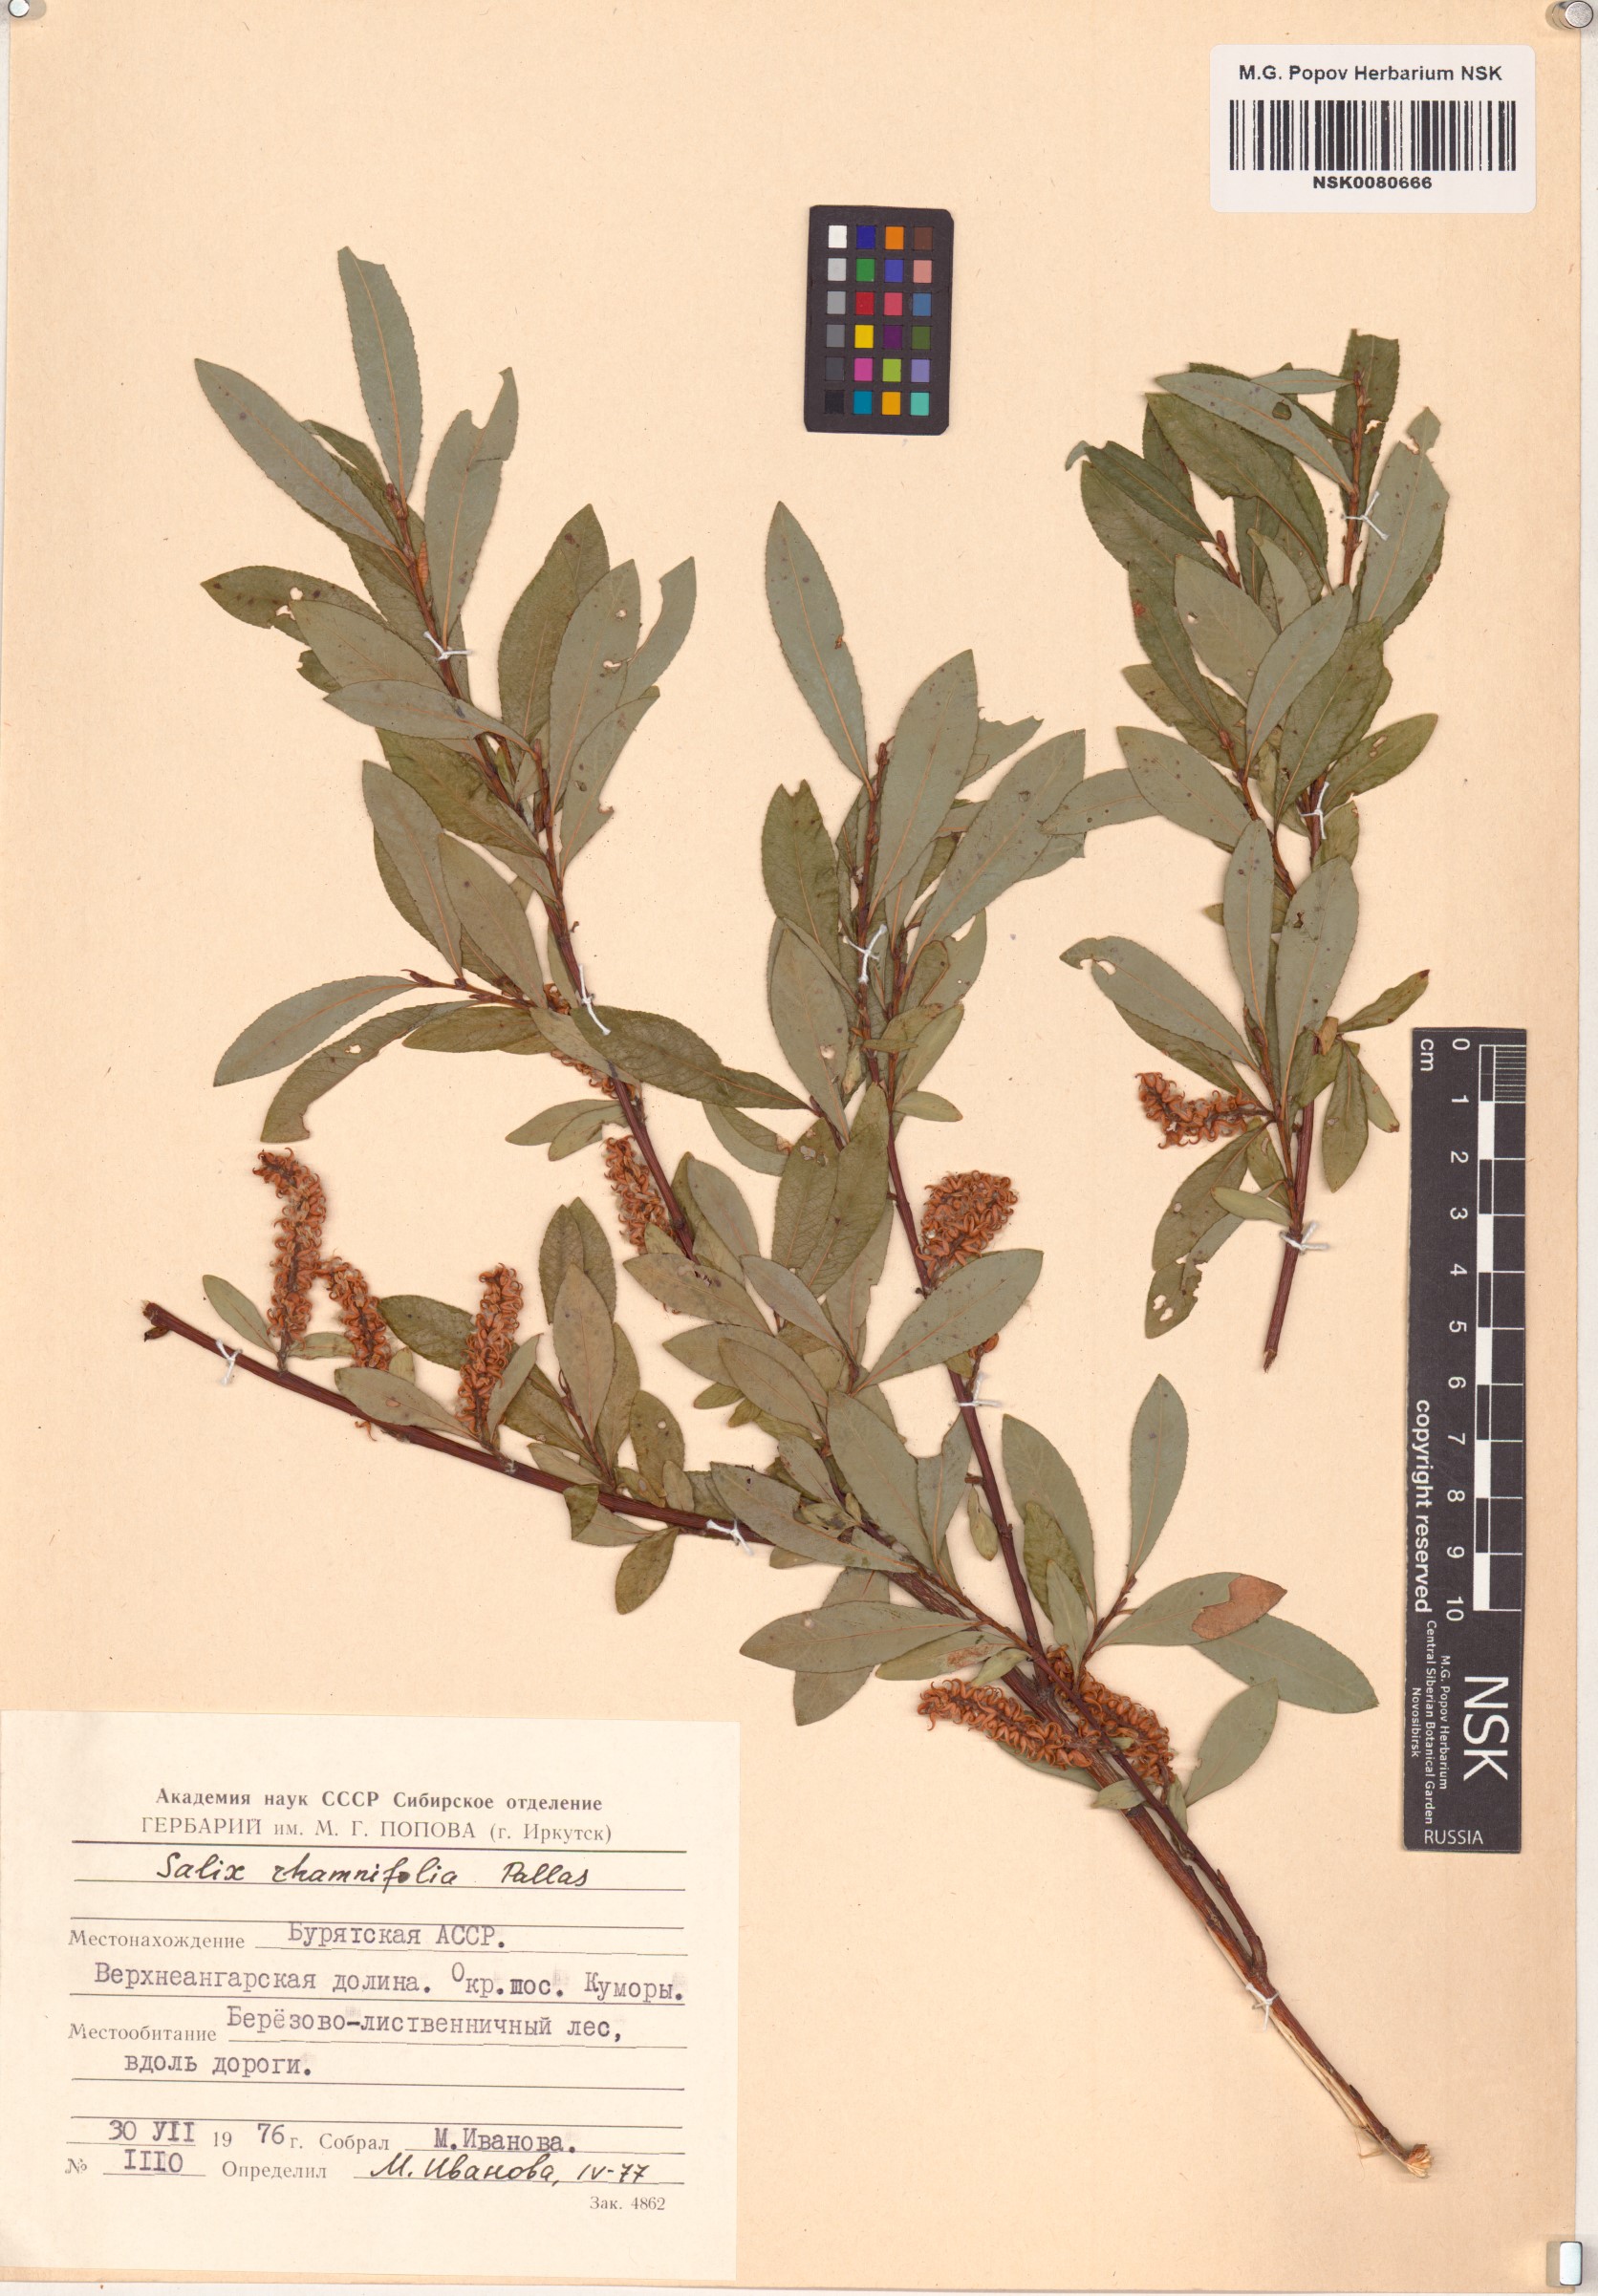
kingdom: Plantae
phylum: Tracheophyta
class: Magnoliopsida
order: Malpighiales
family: Salicaceae
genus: Salix
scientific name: Salix rhamnifolia
